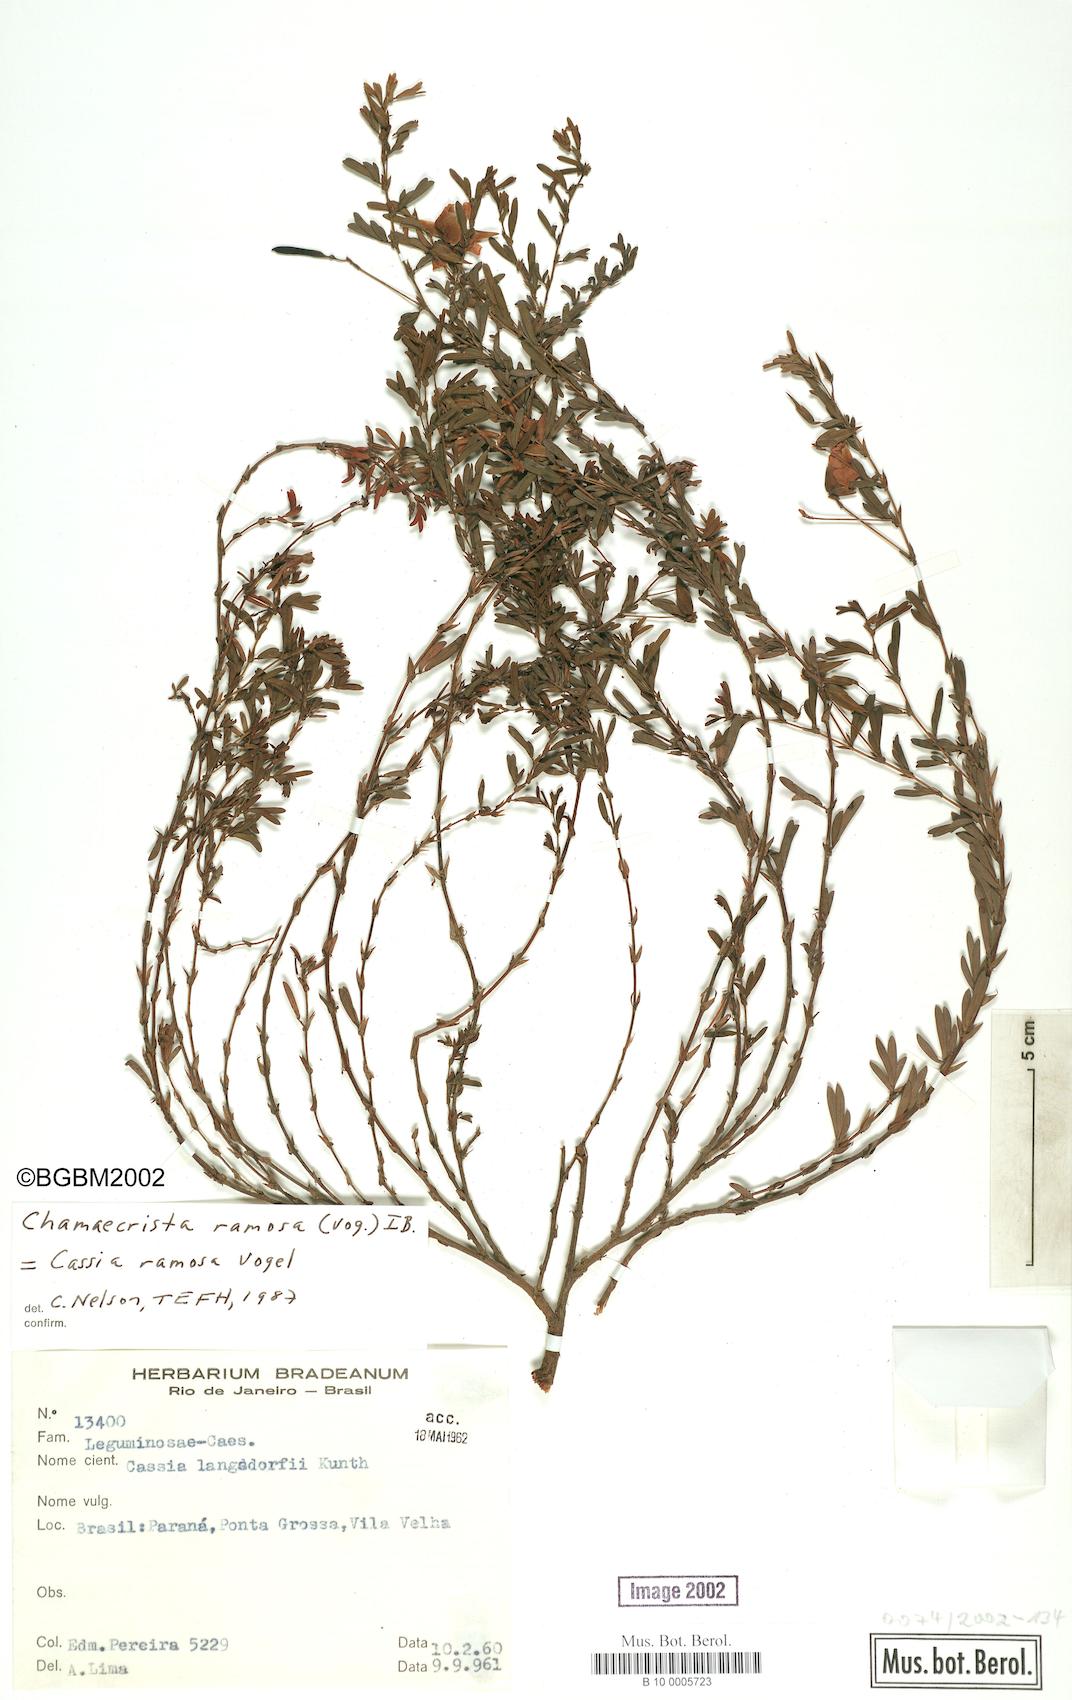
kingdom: Plantae
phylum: Tracheophyta
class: Magnoliopsida
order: Fabales
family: Fabaceae
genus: Chamaecrista
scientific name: Chamaecrista
